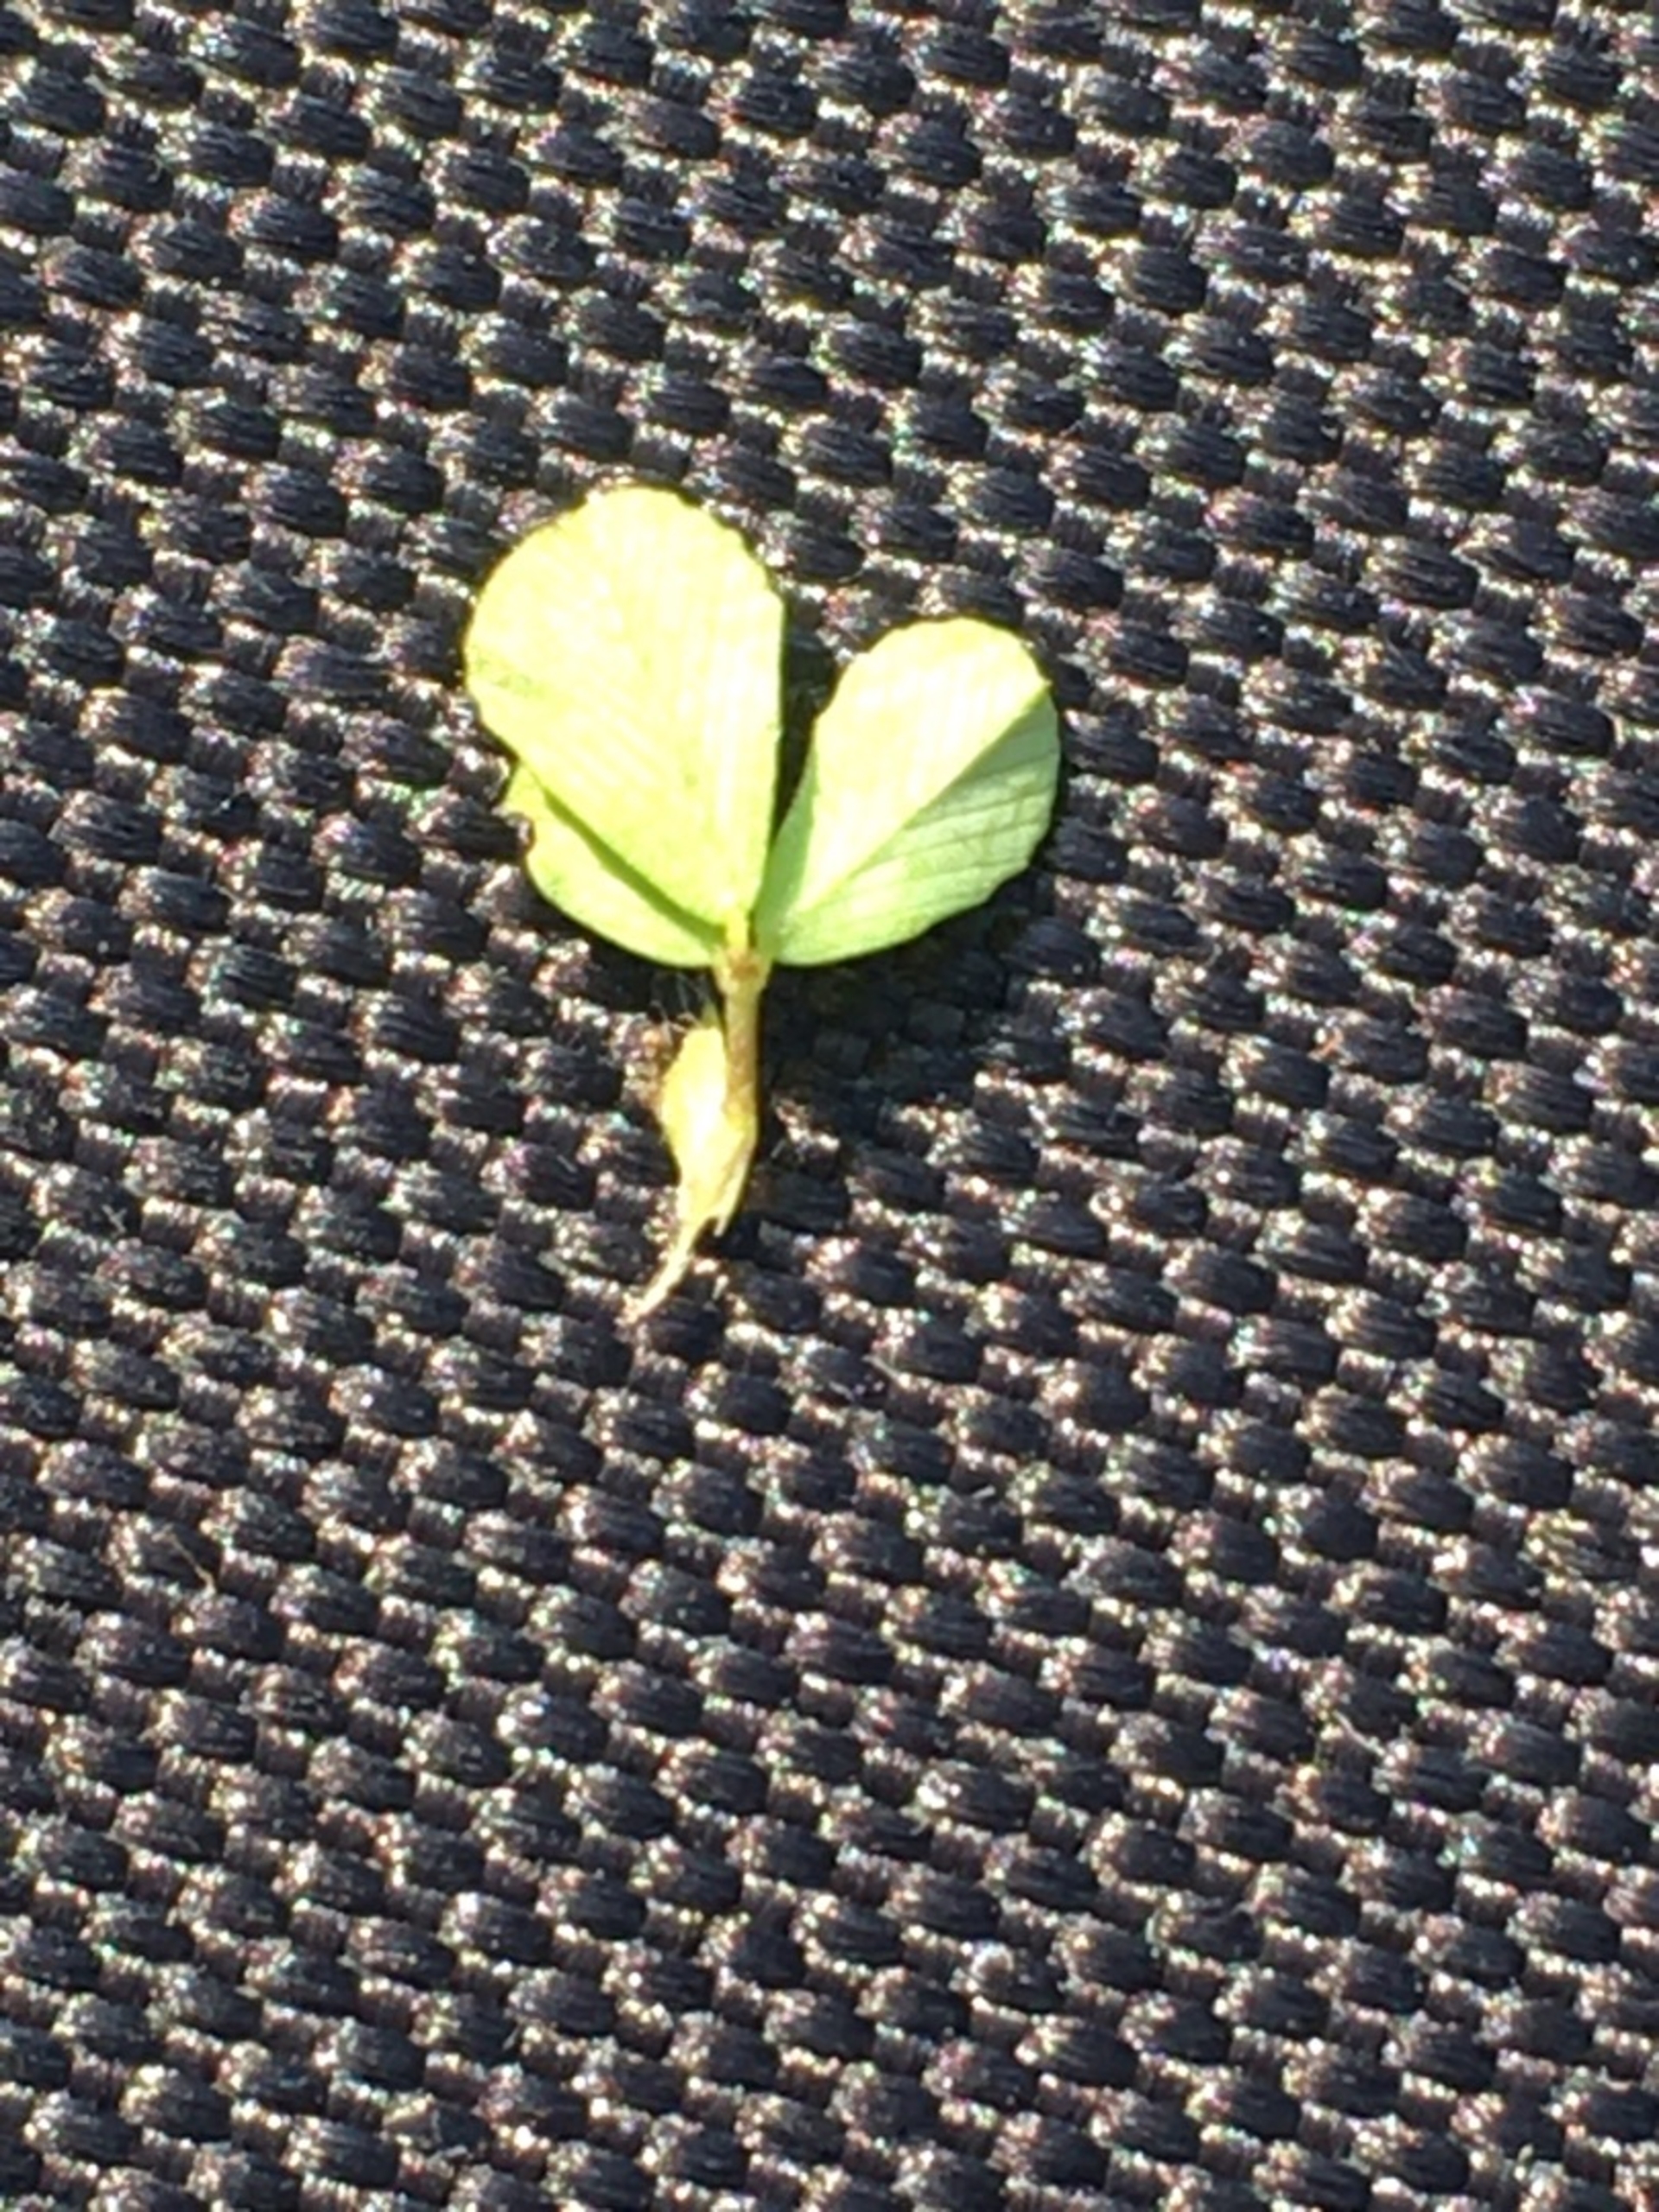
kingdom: Plantae
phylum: Tracheophyta
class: Magnoliopsida
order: Fabales
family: Fabaceae
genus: Trifolium
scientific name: Trifolium campestre
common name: Gul kløver
